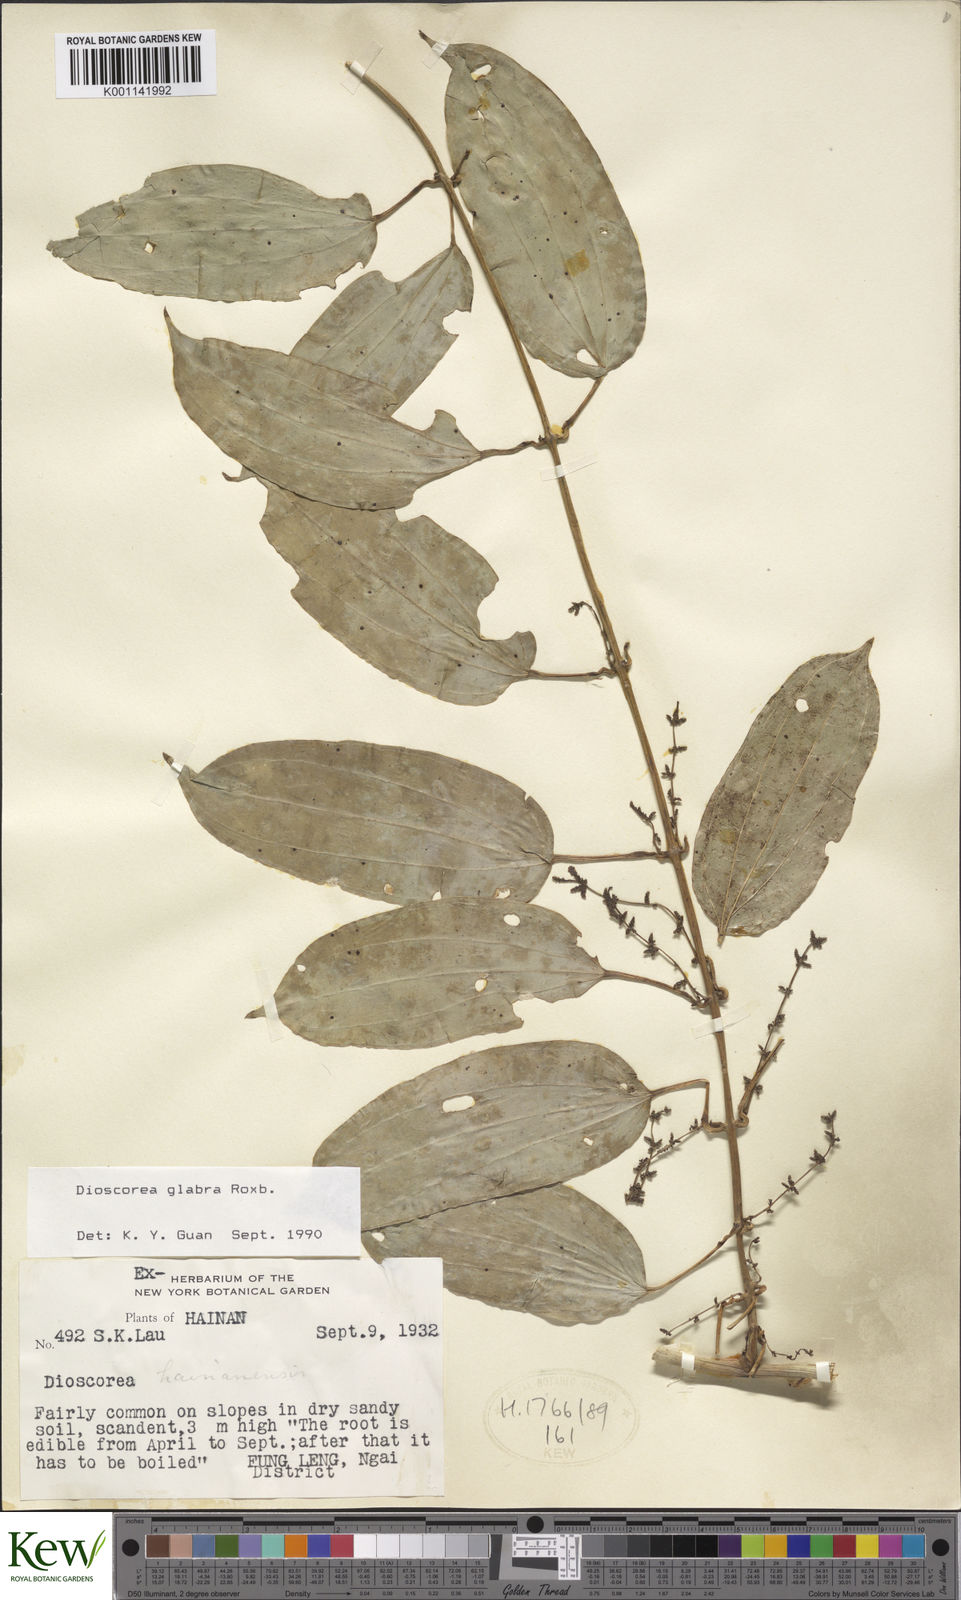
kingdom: Plantae
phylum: Tracheophyta
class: Liliopsida
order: Dioscoreales
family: Dioscoreaceae
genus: Dioscorea
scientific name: Dioscorea glabra
